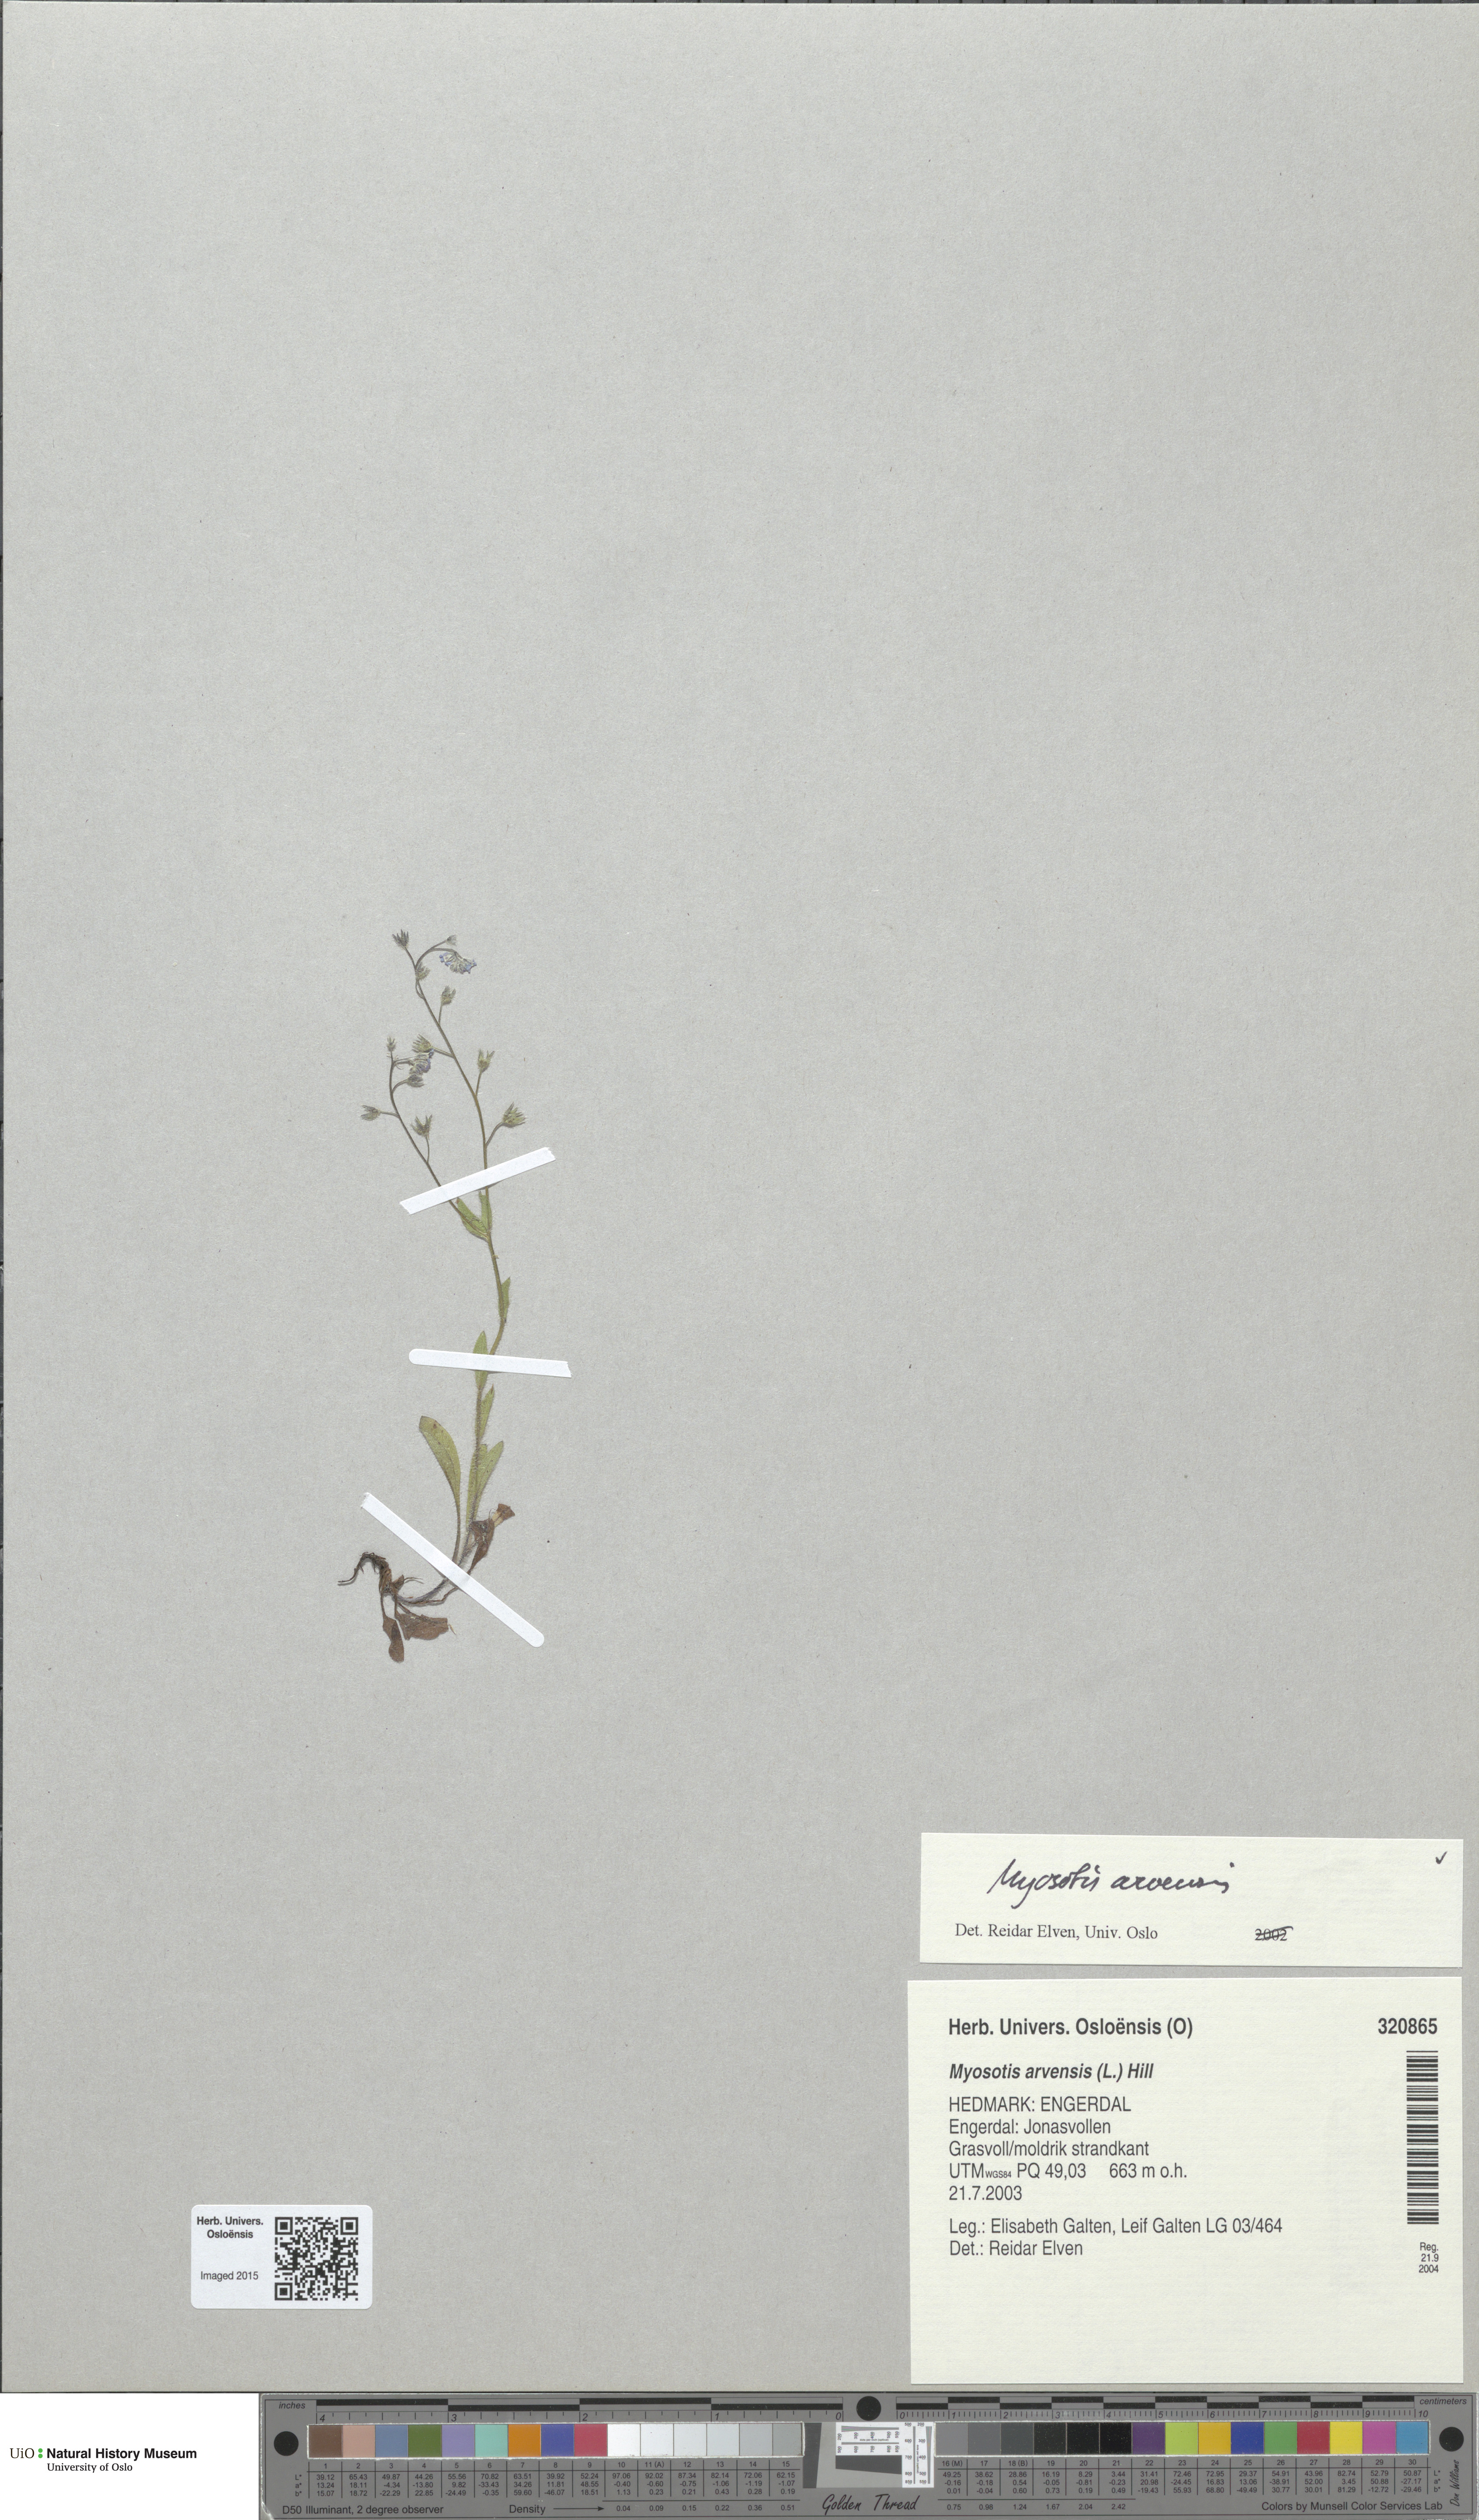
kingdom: Plantae
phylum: Tracheophyta
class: Magnoliopsida
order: Boraginales
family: Boraginaceae
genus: Myosotis
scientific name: Myosotis arvensis
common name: Field forget-me-not
